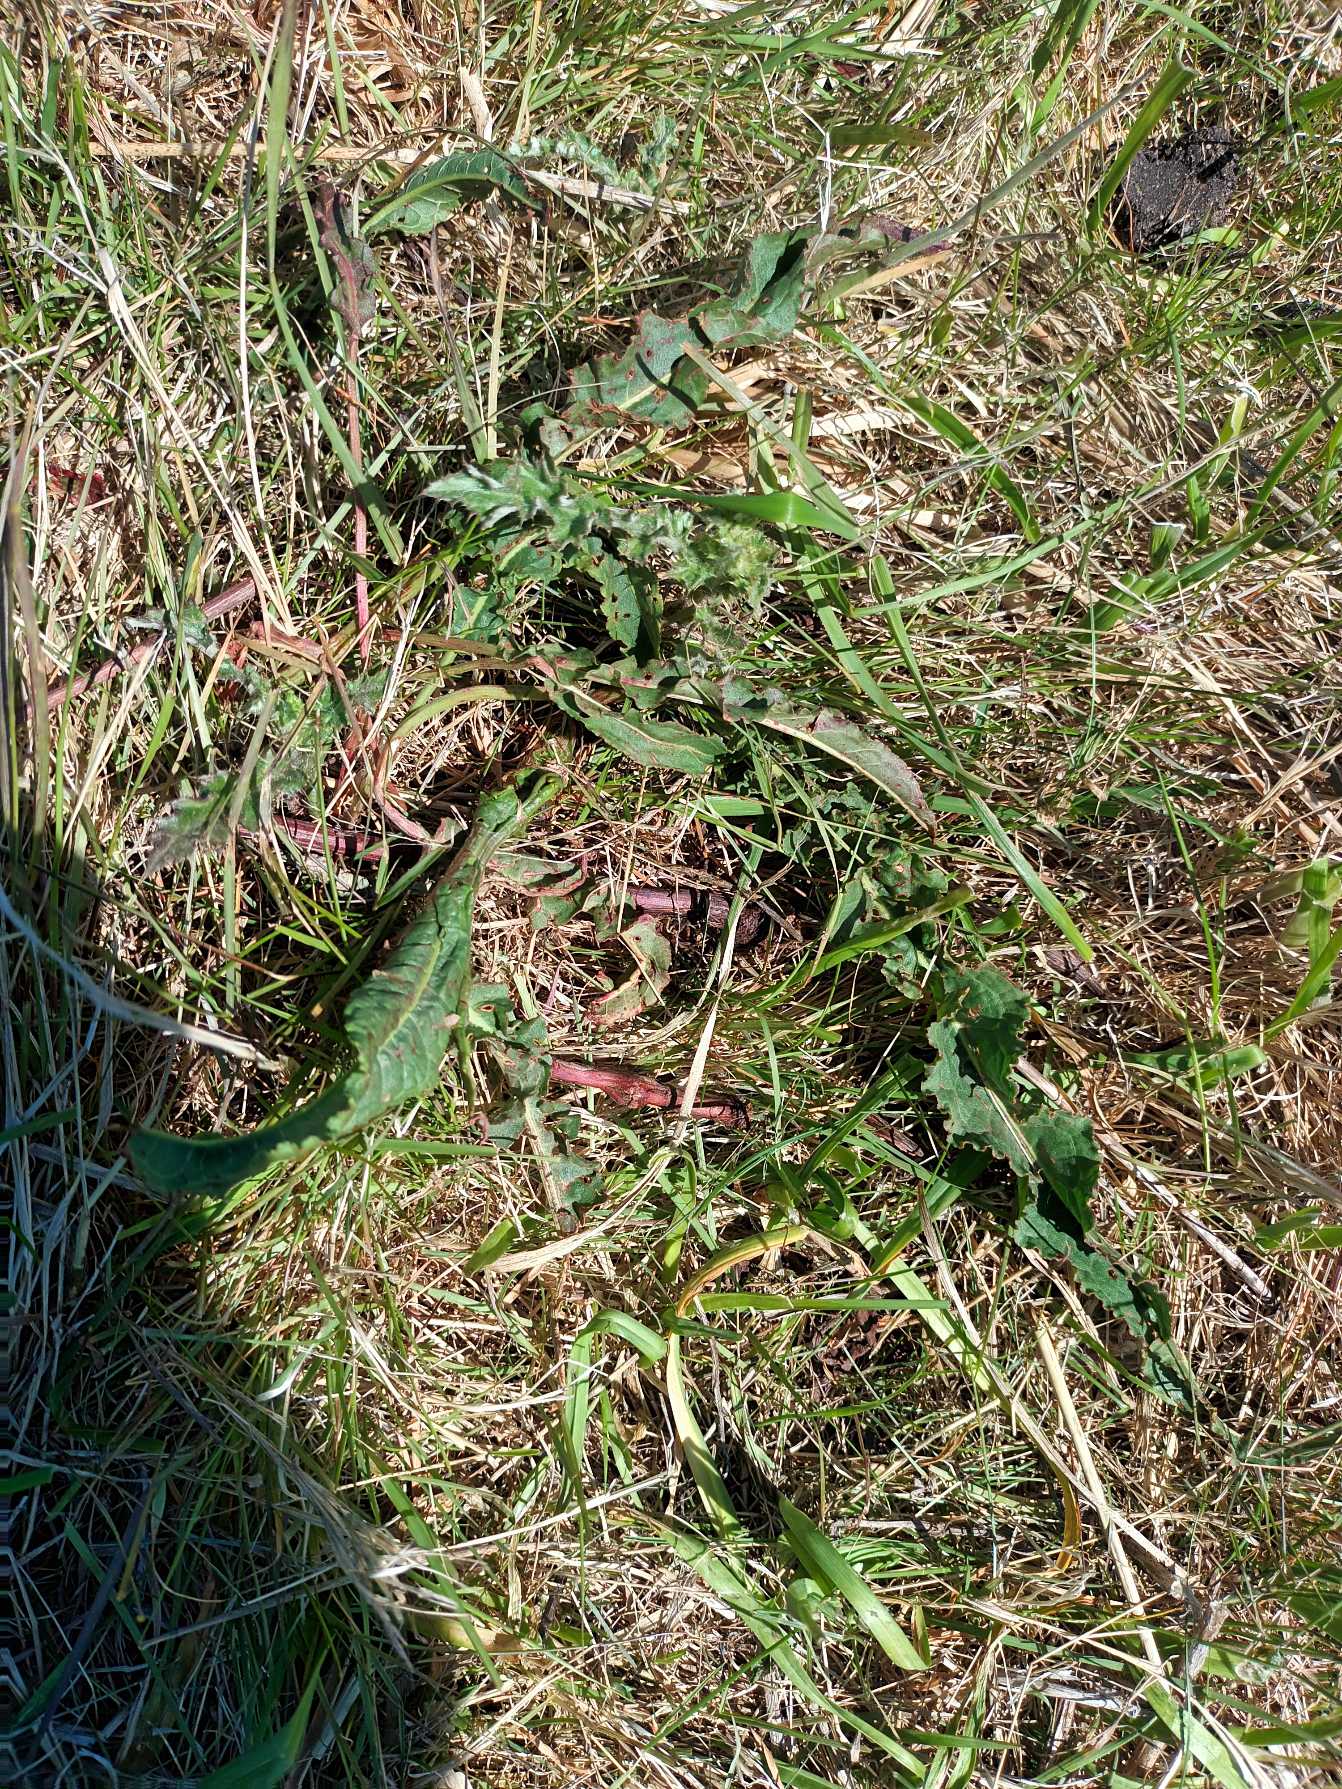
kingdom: Plantae
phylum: Tracheophyta
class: Magnoliopsida
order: Caryophyllales
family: Polygonaceae
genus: Rumex
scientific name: Rumex crispus
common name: Kruset skræppe
